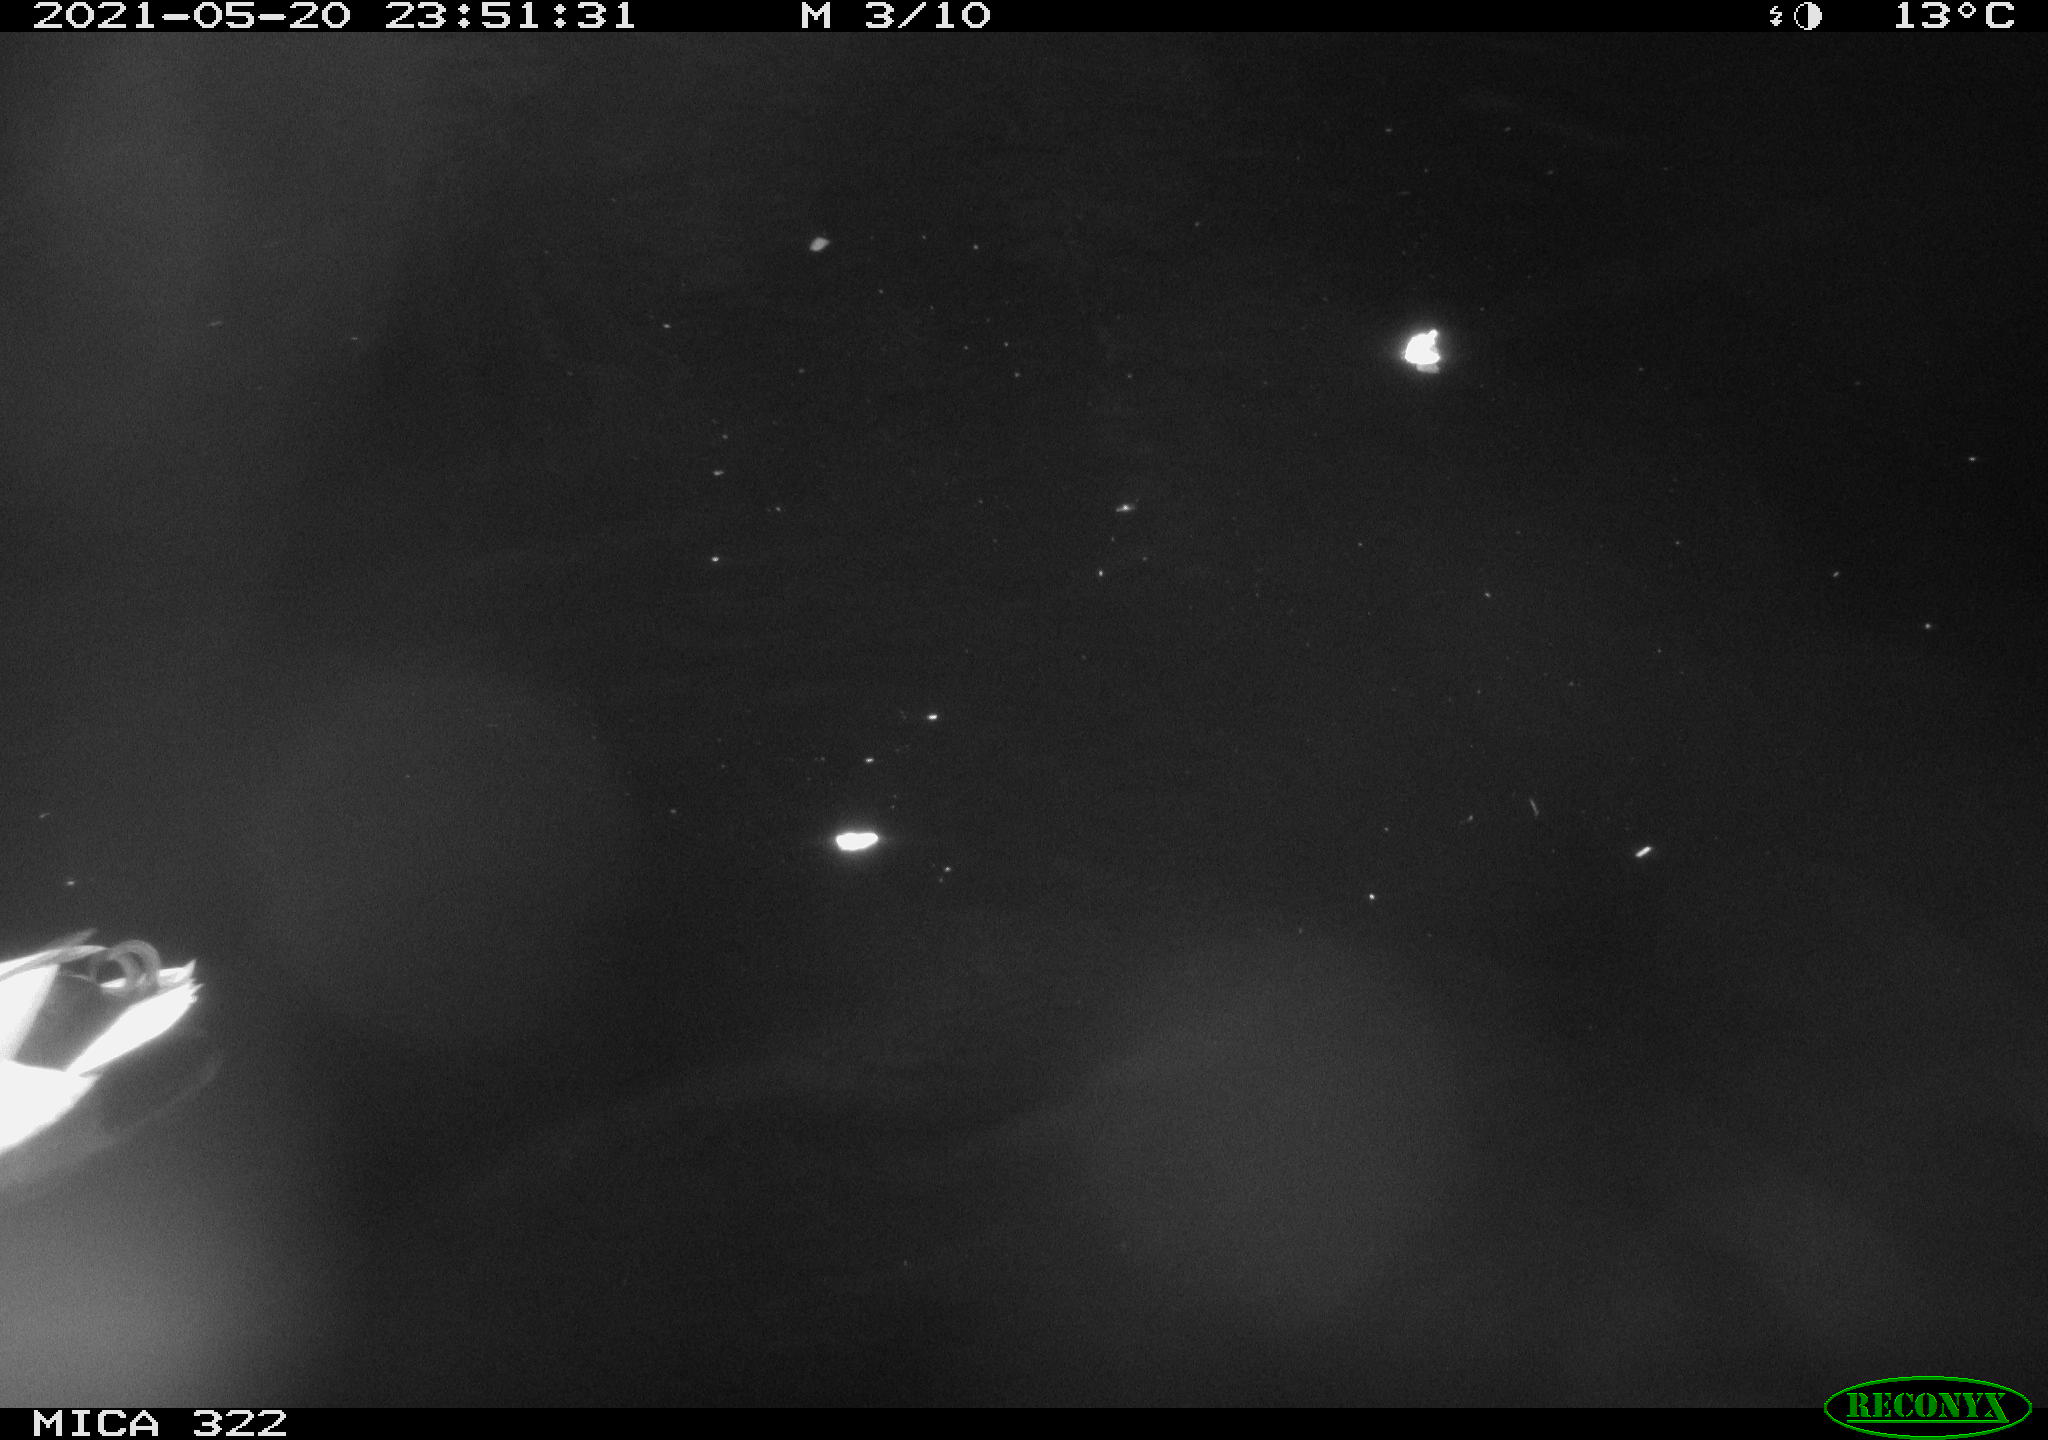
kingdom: Animalia
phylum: Chordata
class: Aves
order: Anseriformes
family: Anatidae
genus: Anas
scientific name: Anas platyrhynchos
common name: Mallard
